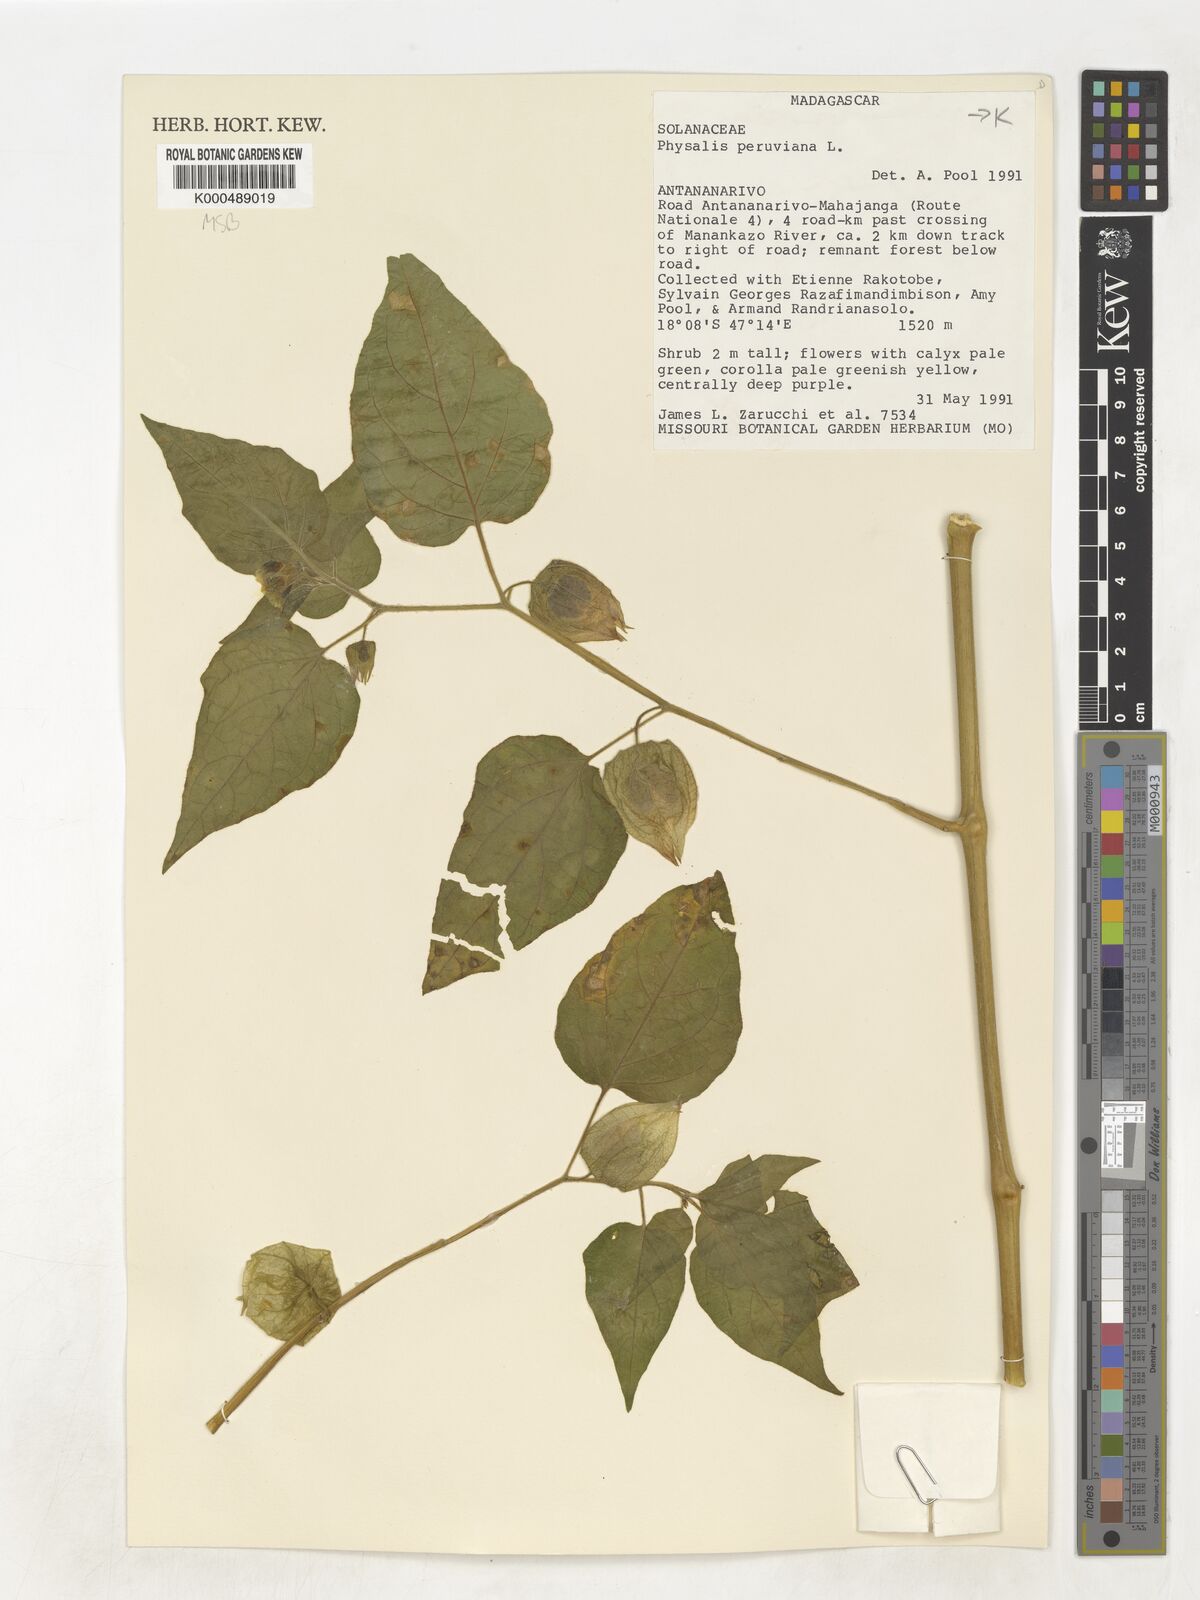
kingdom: Plantae
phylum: Tracheophyta
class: Magnoliopsida
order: Solanales
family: Solanaceae
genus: Physalis
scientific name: Physalis peruviana
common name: Cape-gooseberry
